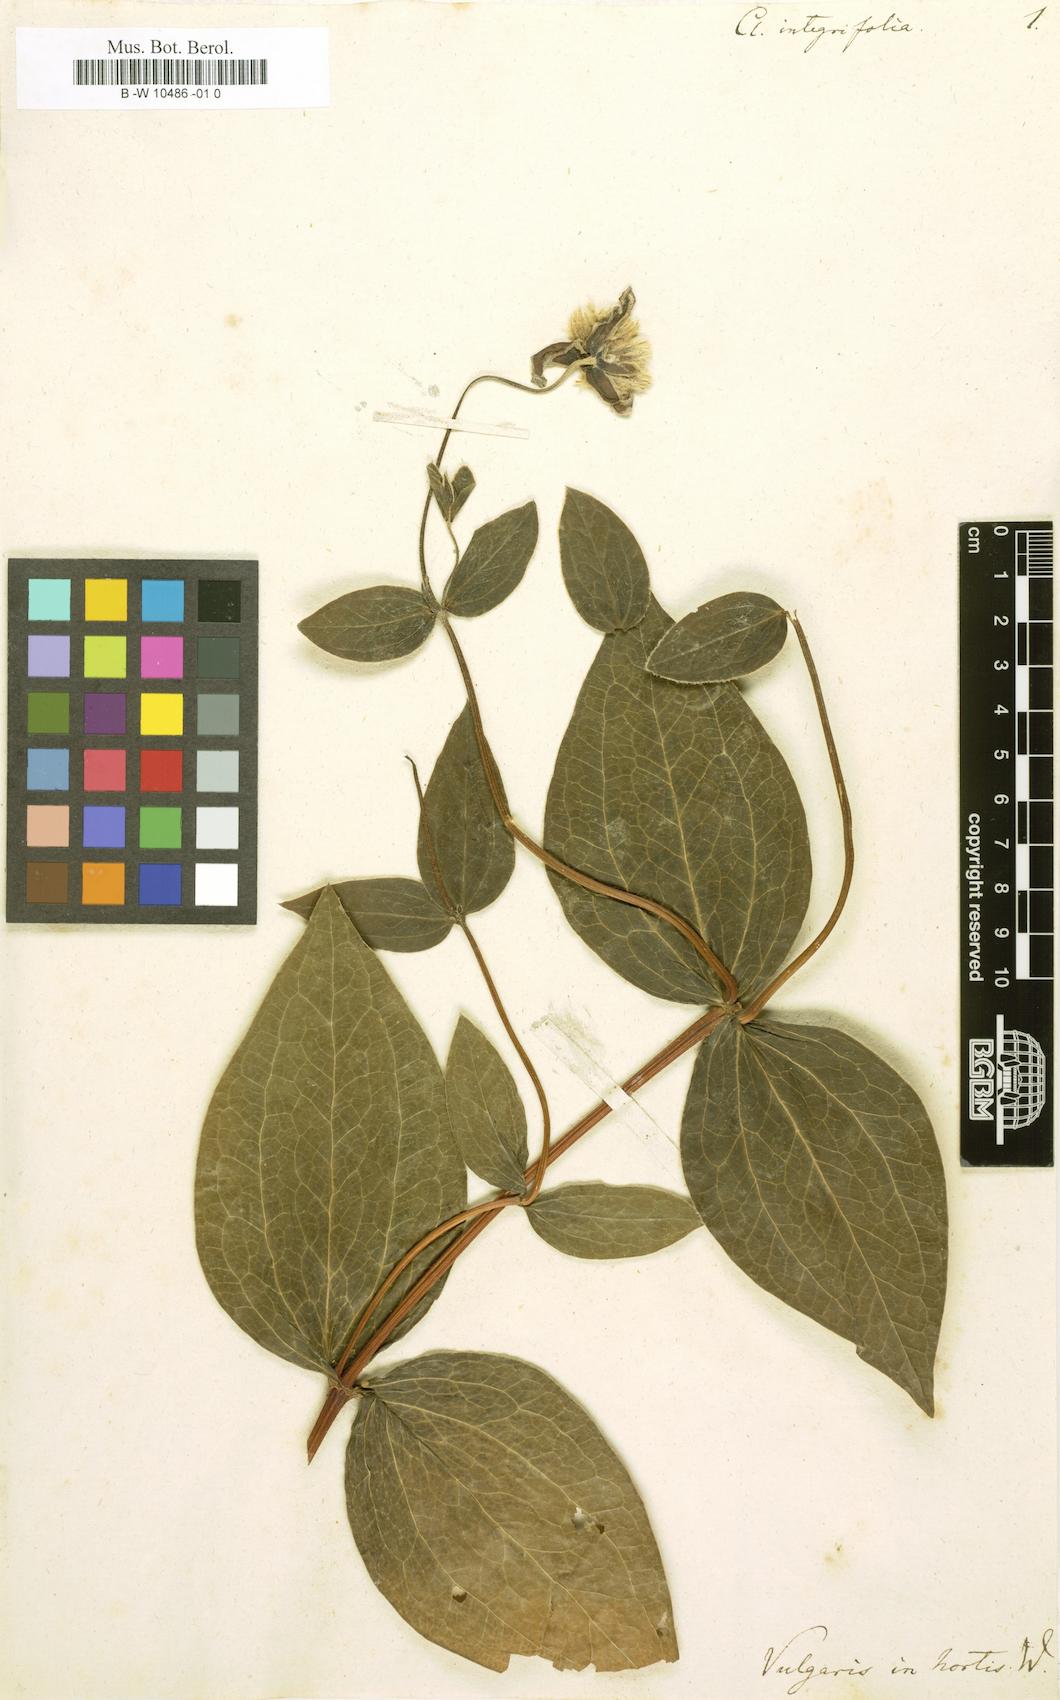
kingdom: Plantae
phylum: Tracheophyta
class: Magnoliopsida
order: Ranunculales
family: Ranunculaceae
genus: Clematis
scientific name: Clematis integrifolia
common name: Solitary clematis
